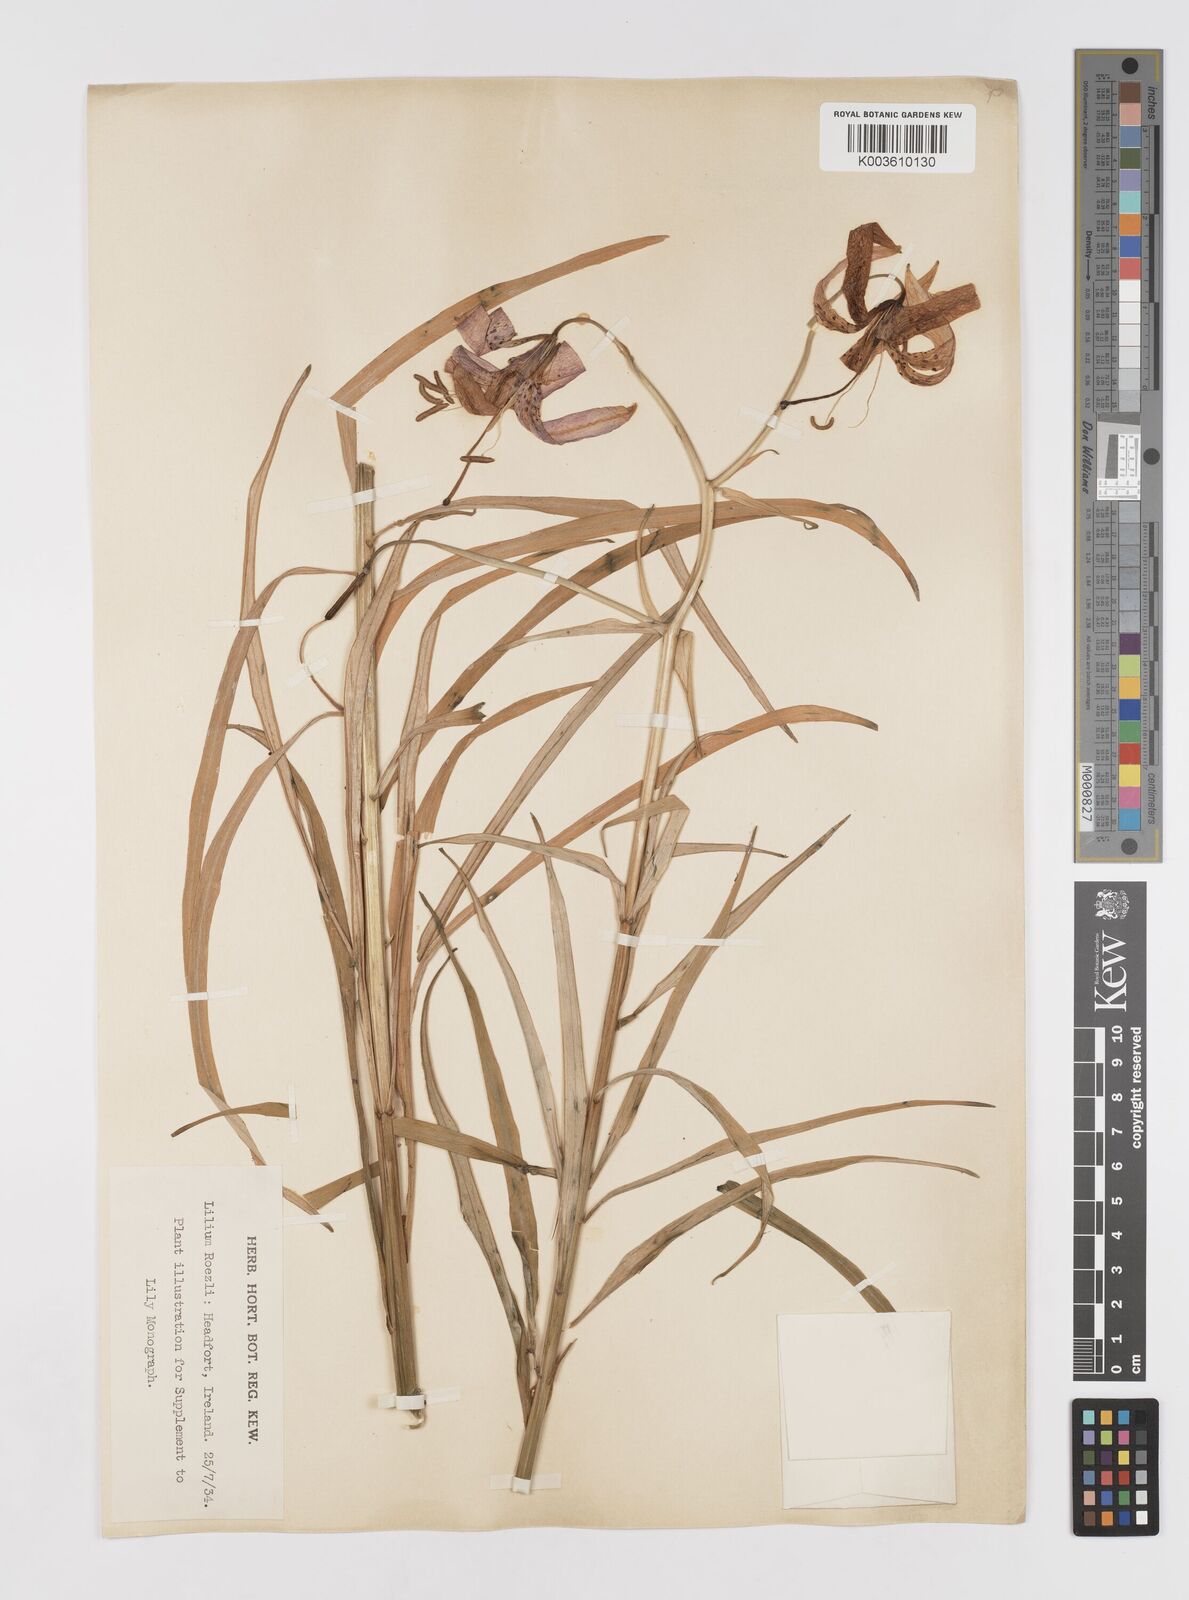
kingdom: Plantae
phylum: Tracheophyta
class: Liliopsida
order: Liliales
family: Liliaceae
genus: Lilium
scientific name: Lilium occidentale
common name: Eureka lily
